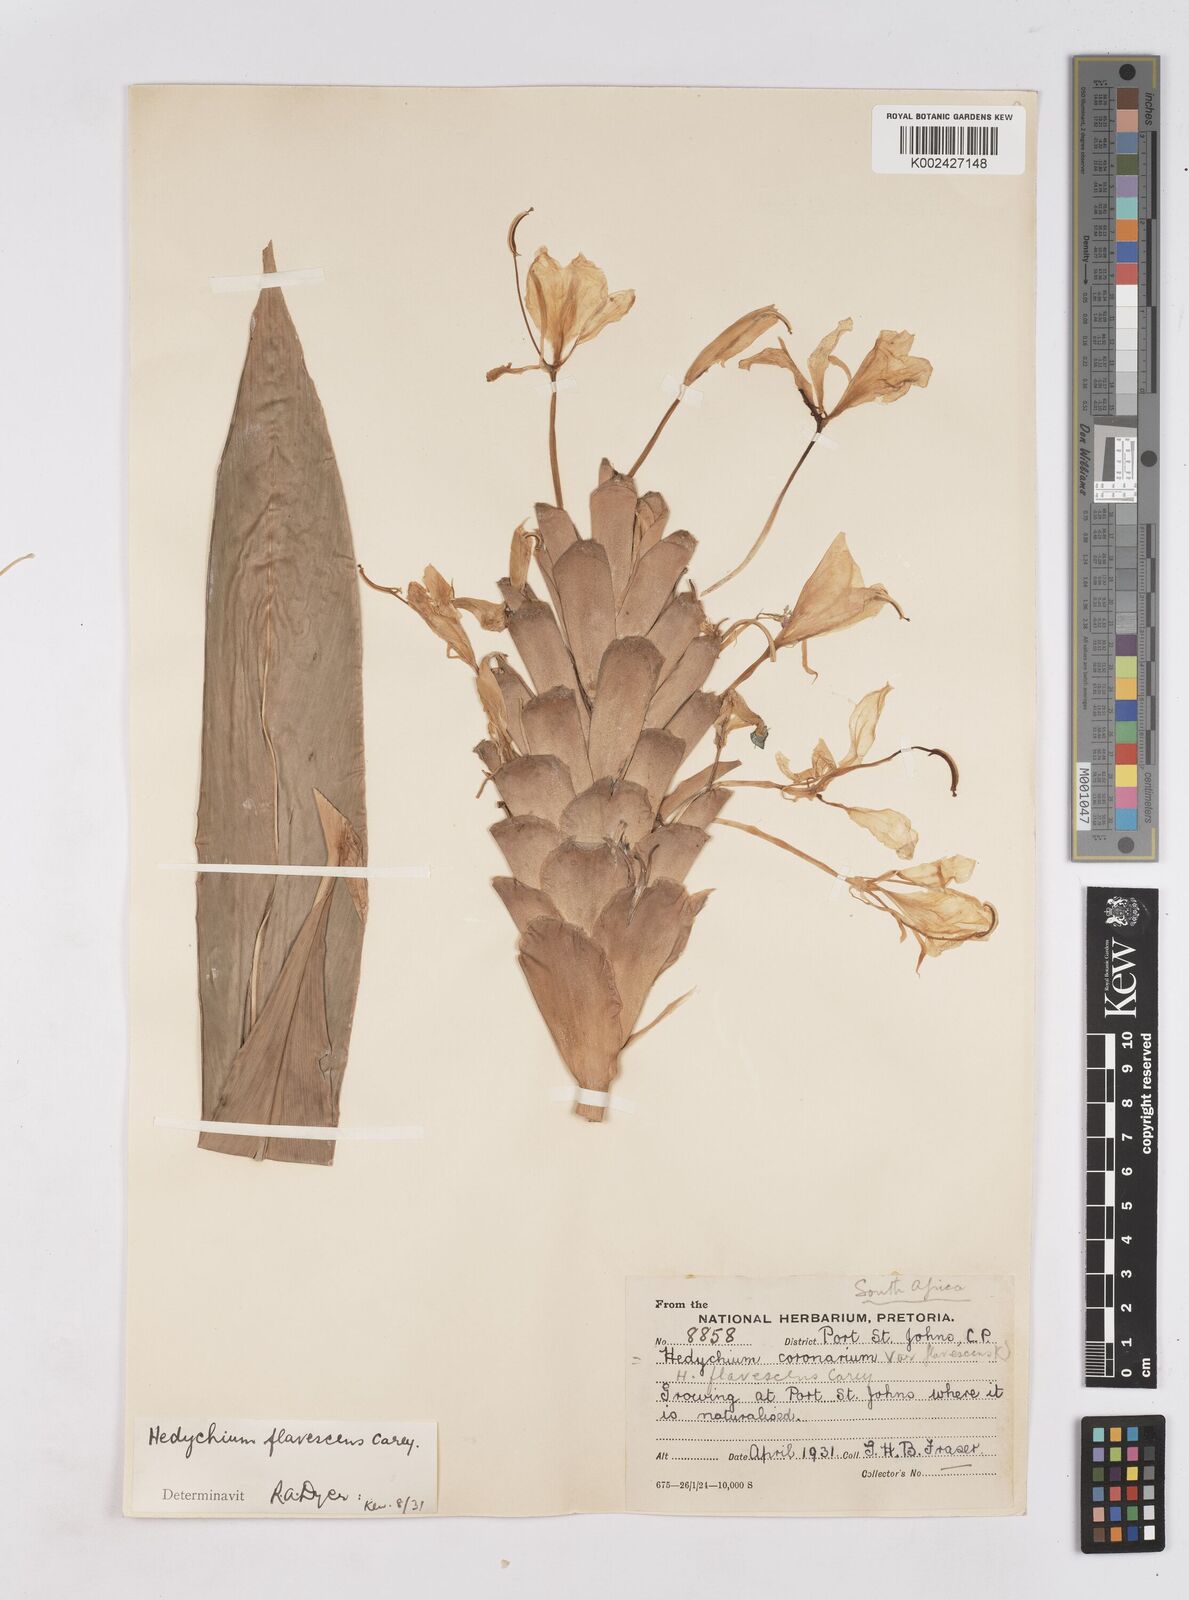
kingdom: Plantae
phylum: Tracheophyta
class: Liliopsida
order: Zingiberales
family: Zingiberaceae
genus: Hedychium
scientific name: Hedychium coronarium
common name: White garland-lily
